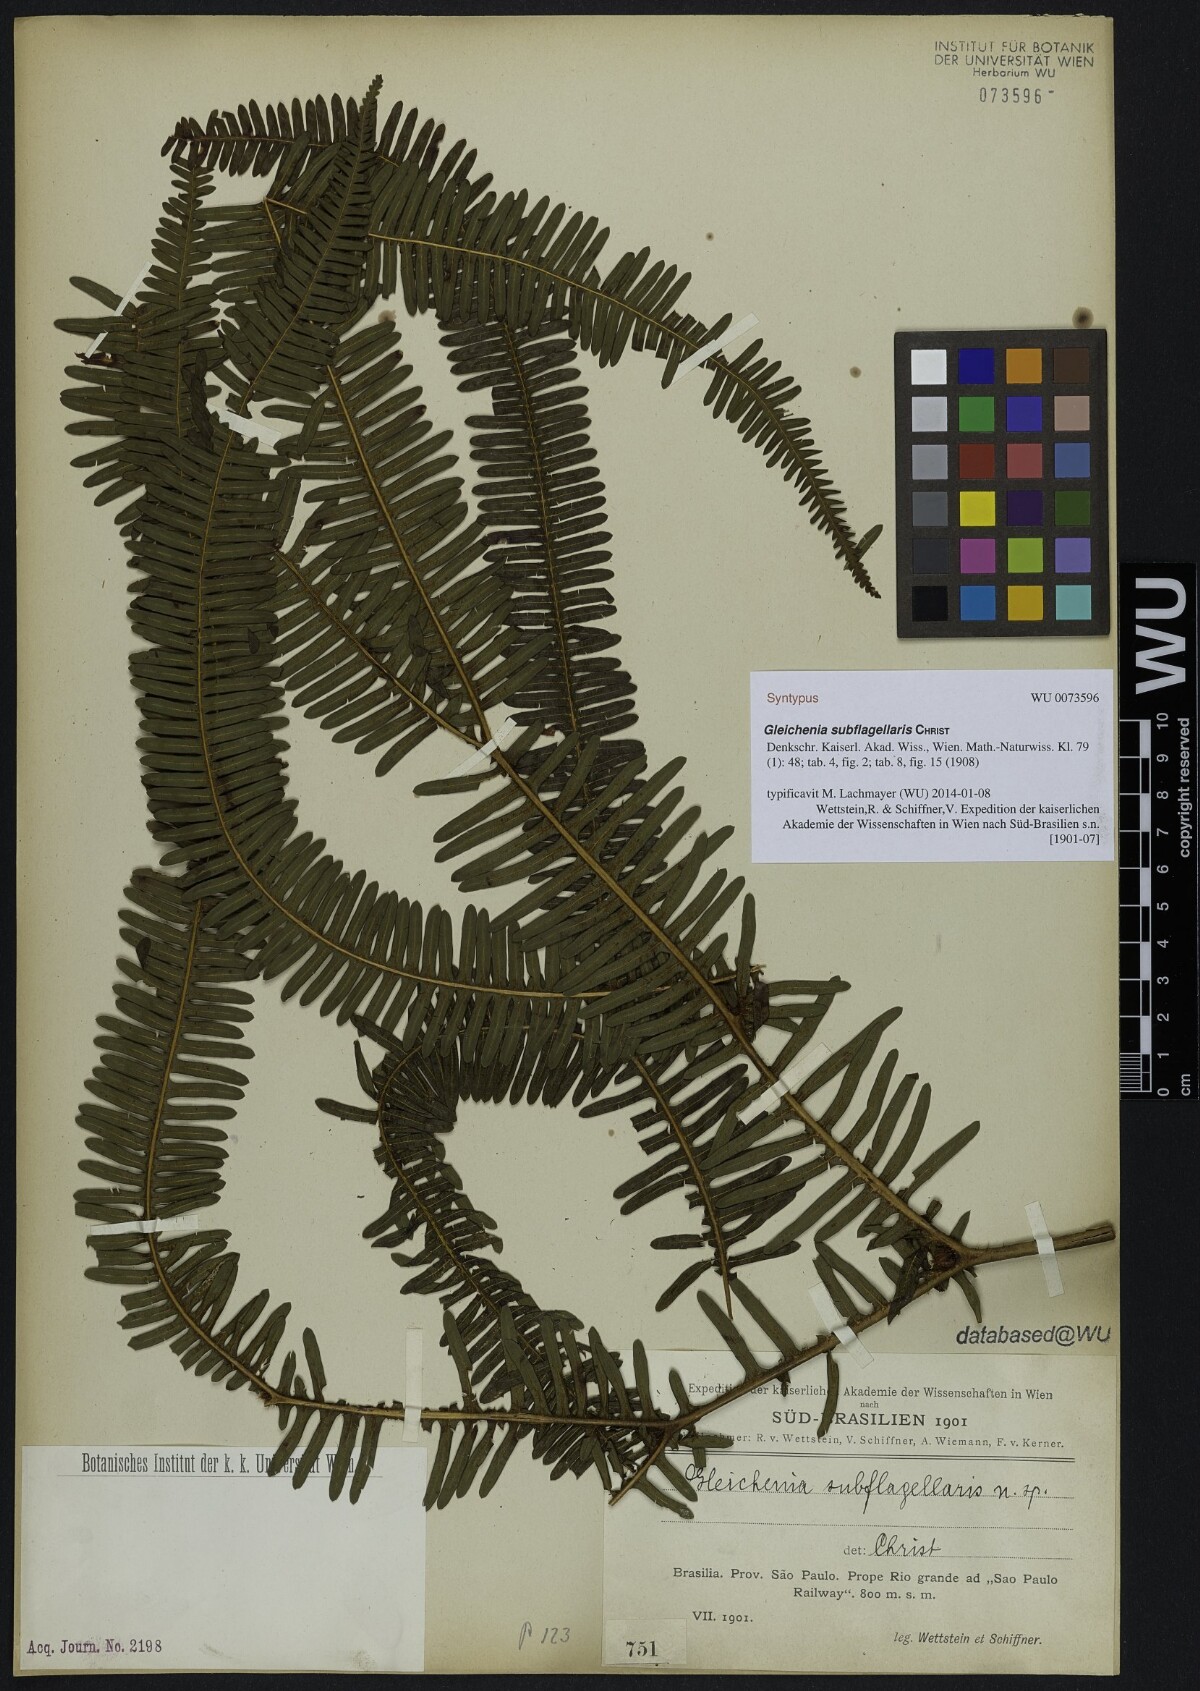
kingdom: Plantae
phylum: Tracheophyta
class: Polypodiopsida
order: Gleicheniales
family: Gleicheniaceae
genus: Sticherus
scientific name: Sticherus squamosus
